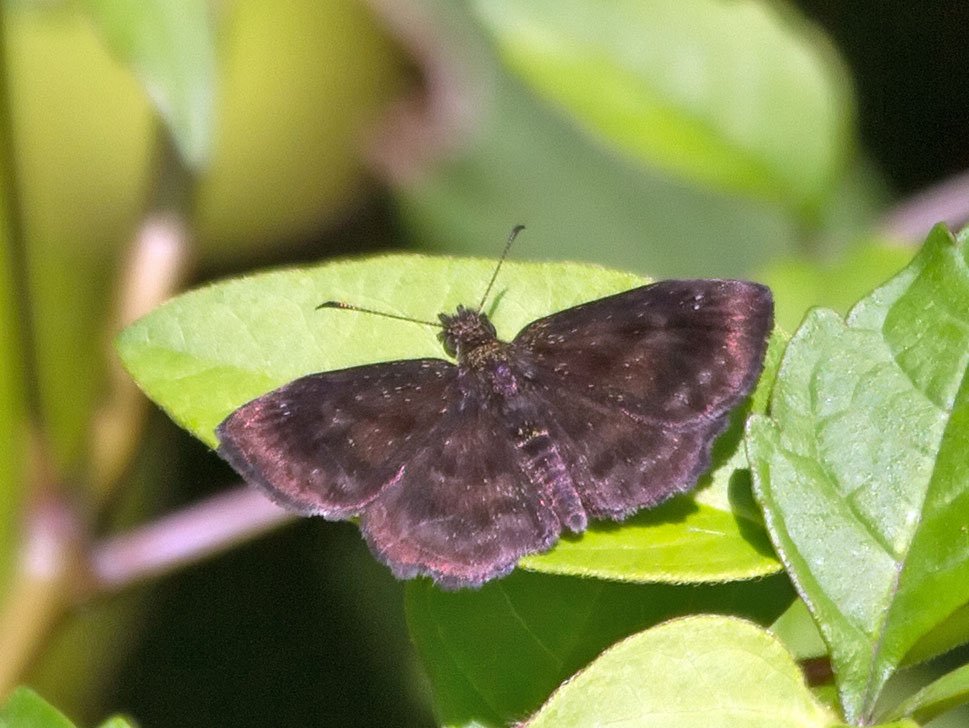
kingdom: Animalia
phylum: Arthropoda
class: Insecta
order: Lepidoptera
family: Hesperiidae
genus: Staphylus
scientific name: Staphylus mazans
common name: Hayhurst's Scallopwing
